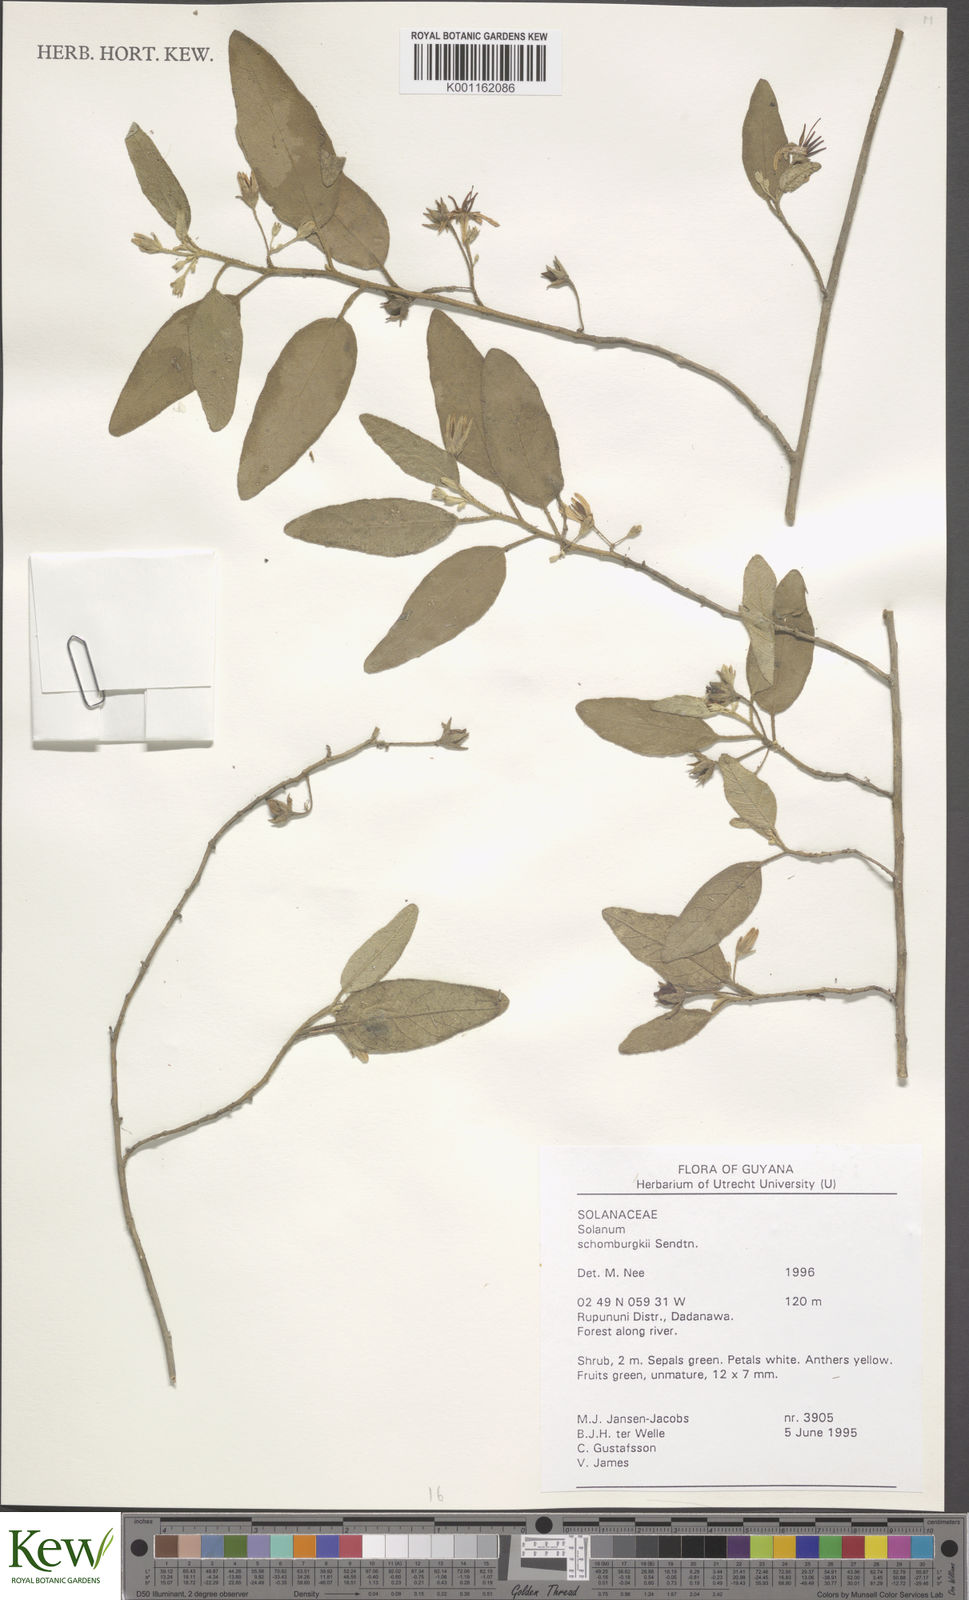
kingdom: Plantae
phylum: Tracheophyta
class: Magnoliopsida
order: Solanales
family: Solanaceae
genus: Solanum
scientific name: Solanum
